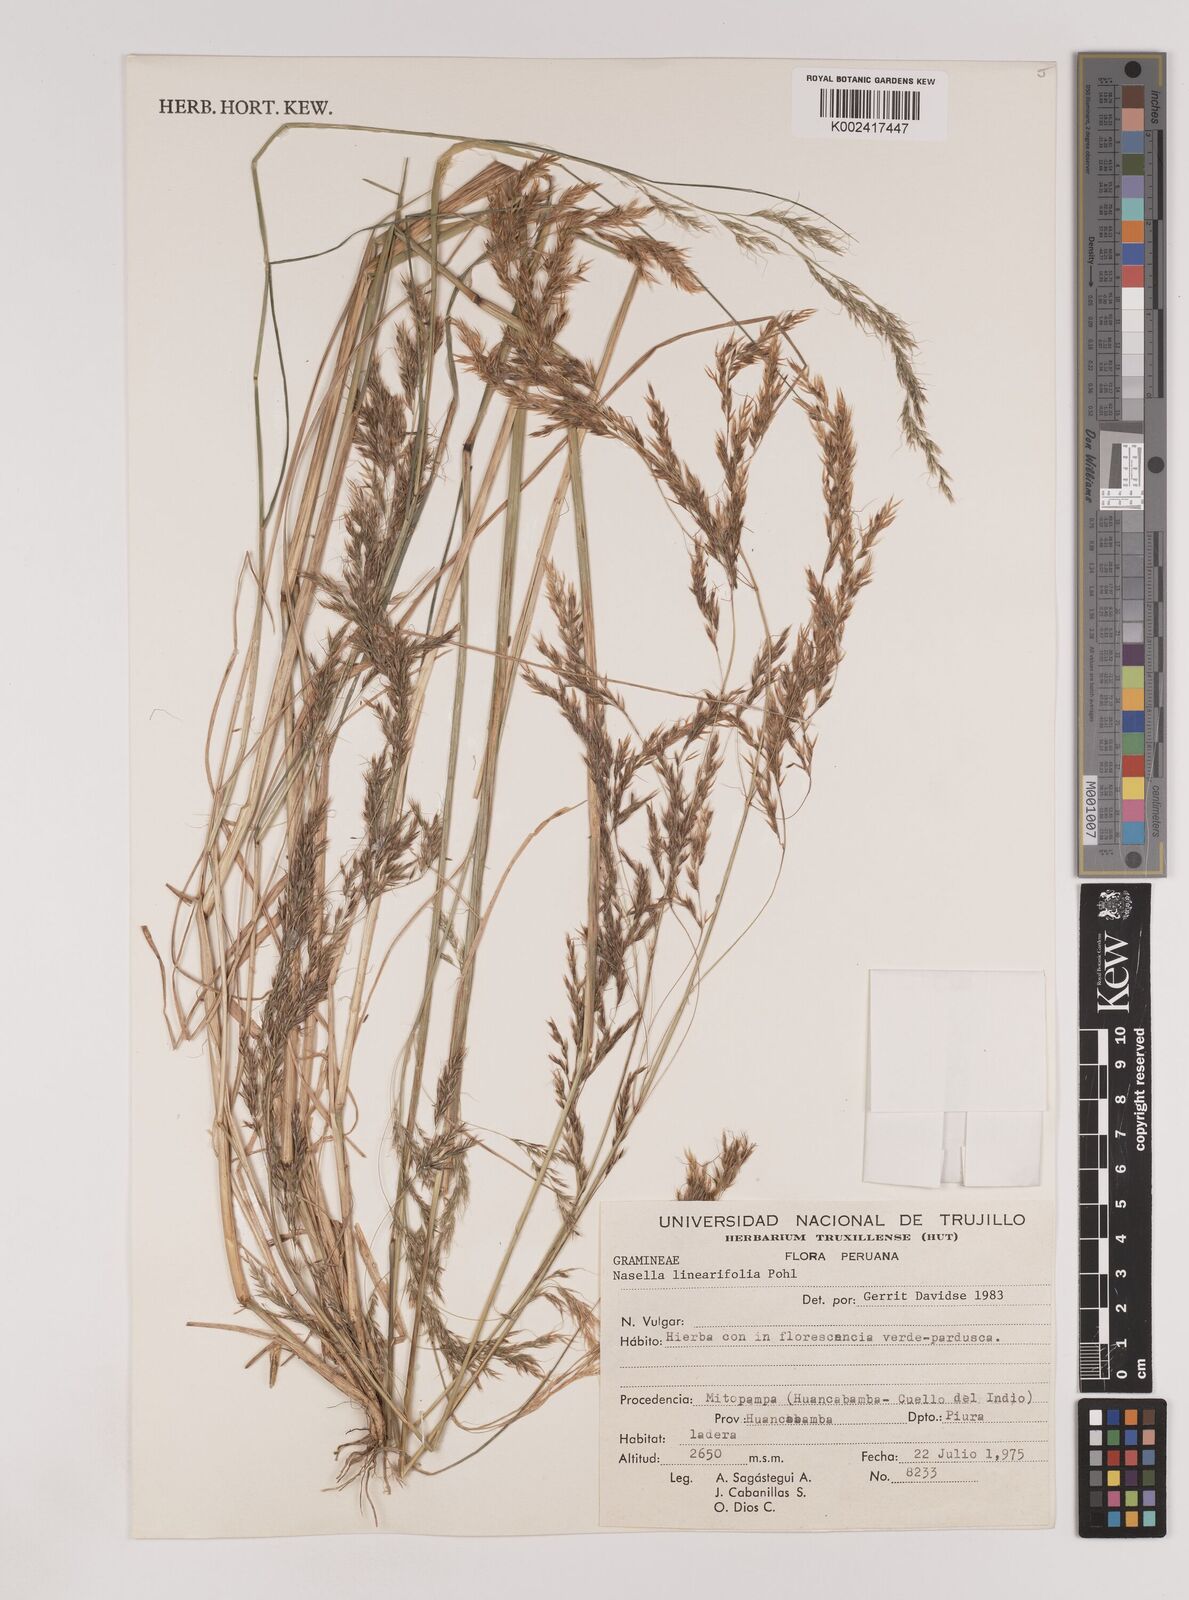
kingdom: Plantae
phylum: Tracheophyta
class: Liliopsida
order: Poales
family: Poaceae
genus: Nassella
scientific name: Nassella caespitosa
